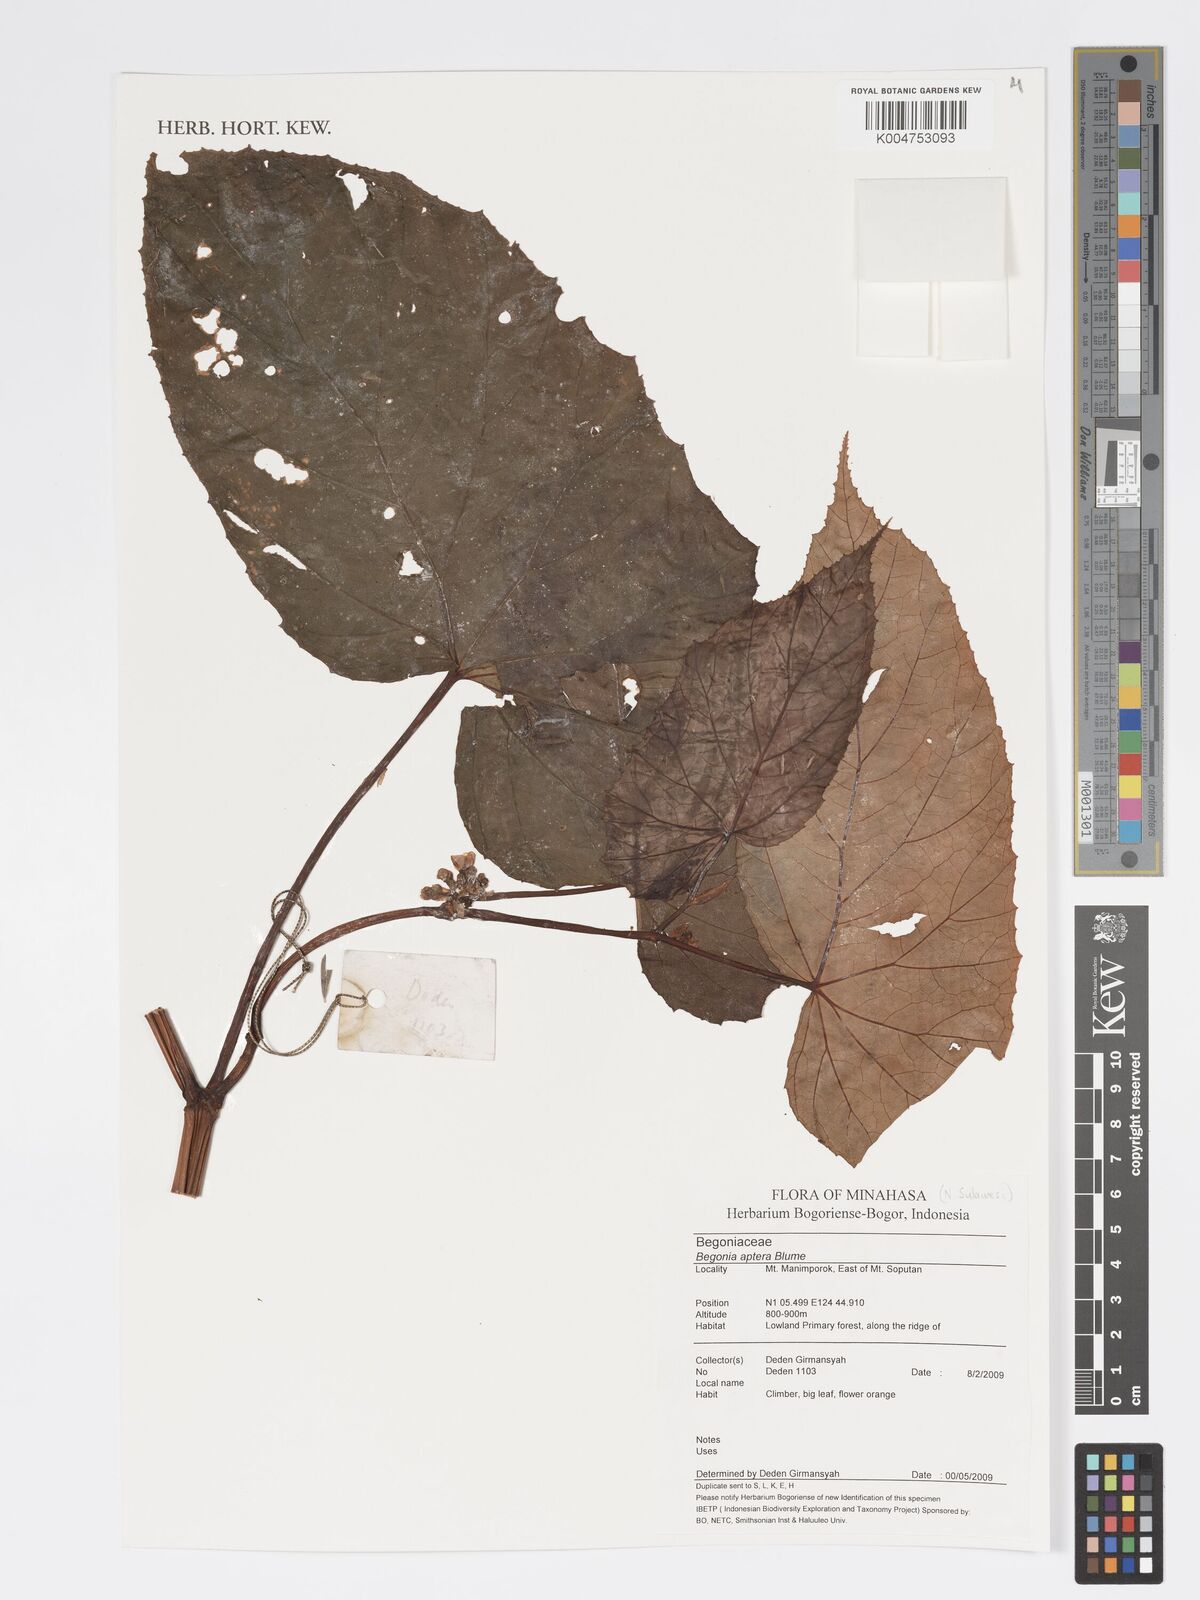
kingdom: Plantae
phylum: Tracheophyta
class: Magnoliopsida
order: Cucurbitales
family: Begoniaceae
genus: Begonia
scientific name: Begonia
